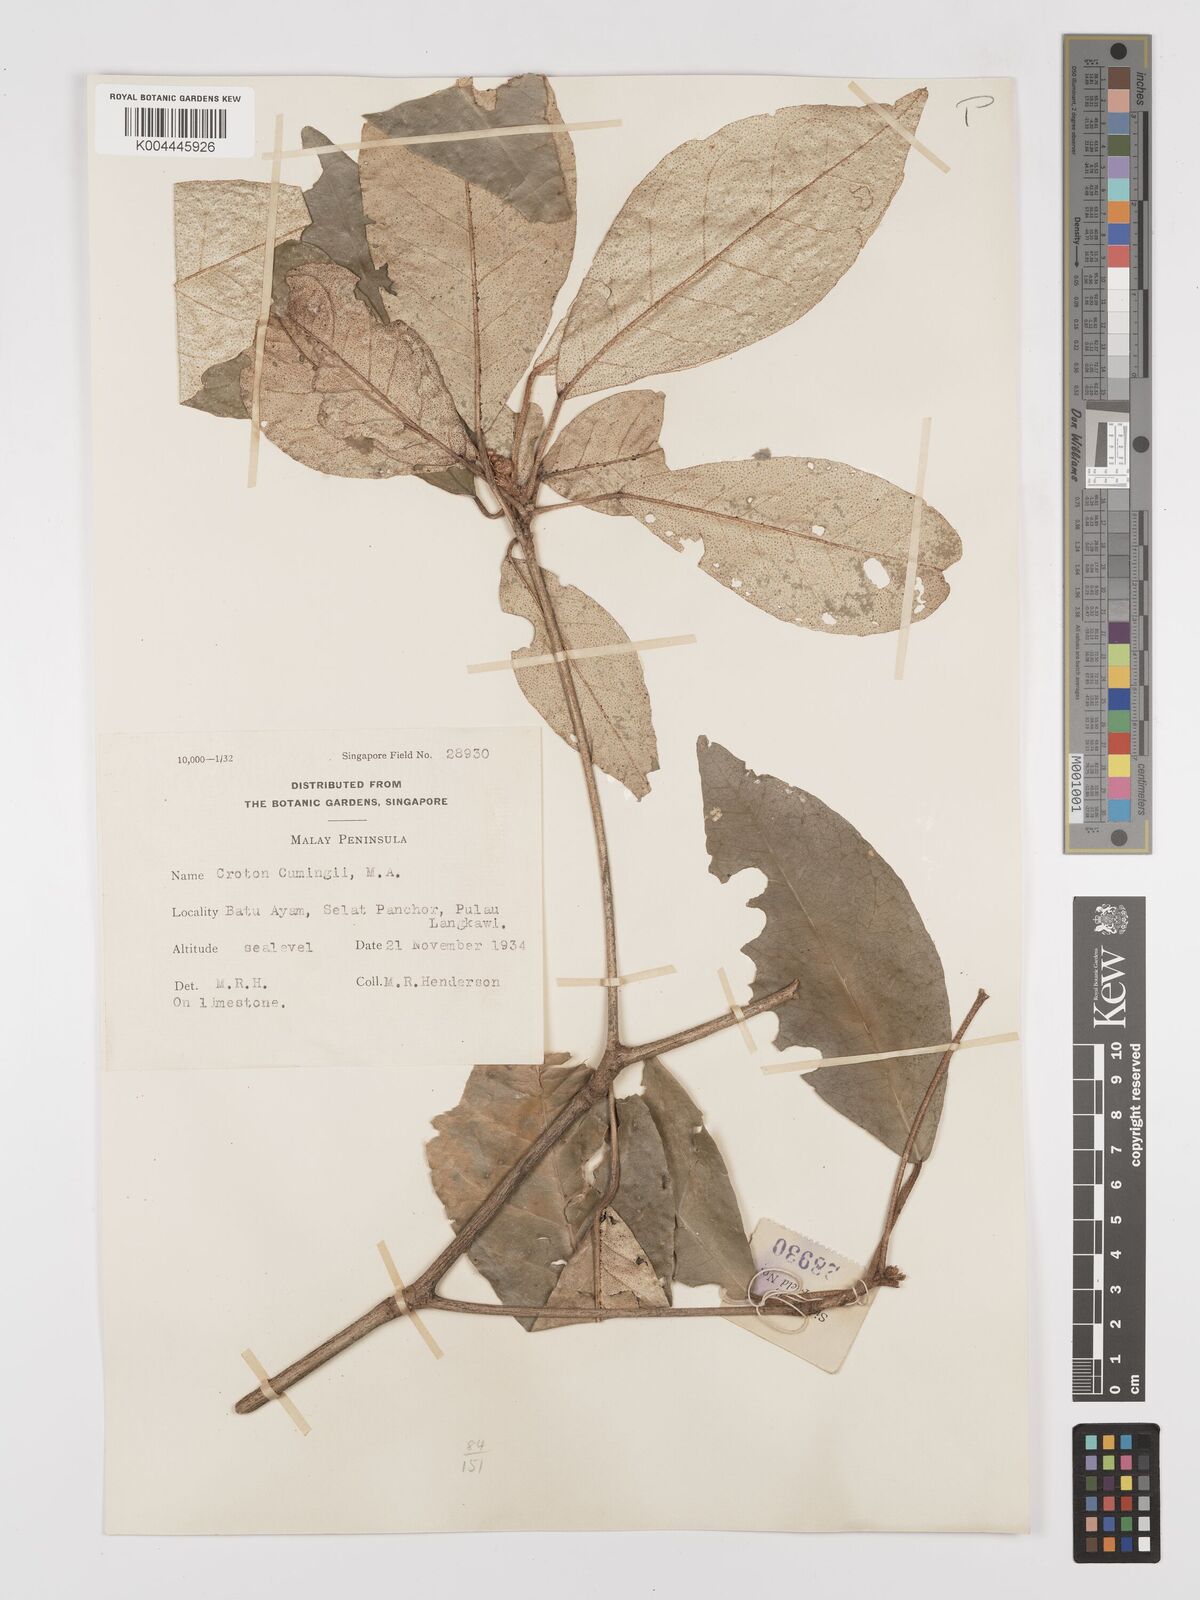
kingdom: Plantae
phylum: Tracheophyta
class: Magnoliopsida
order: Malpighiales
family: Euphorbiaceae
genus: Croton
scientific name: Croton cascarilloides
